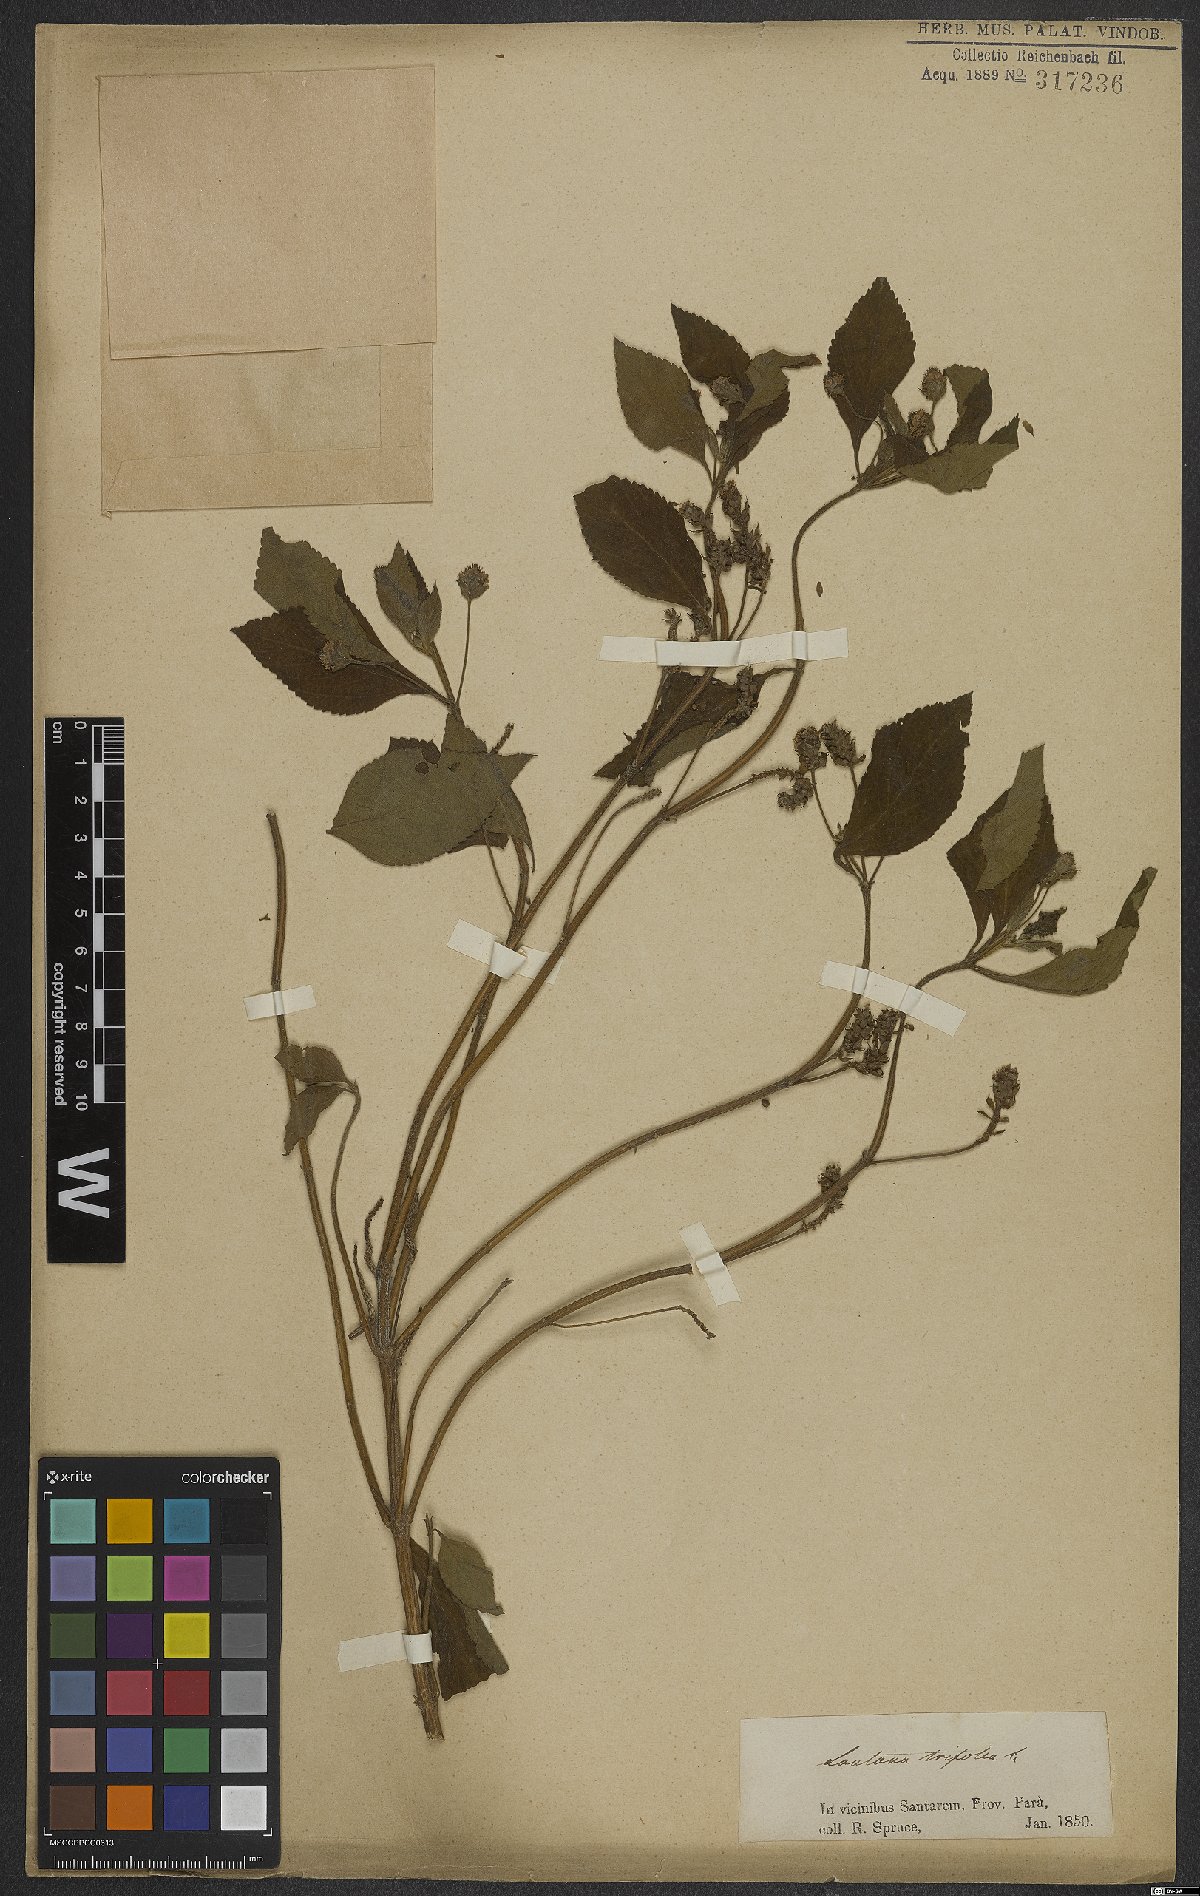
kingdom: Plantae
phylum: Tracheophyta
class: Magnoliopsida
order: Lamiales
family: Verbenaceae
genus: Lantana
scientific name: Lantana trifolia
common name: Sweet-sage
